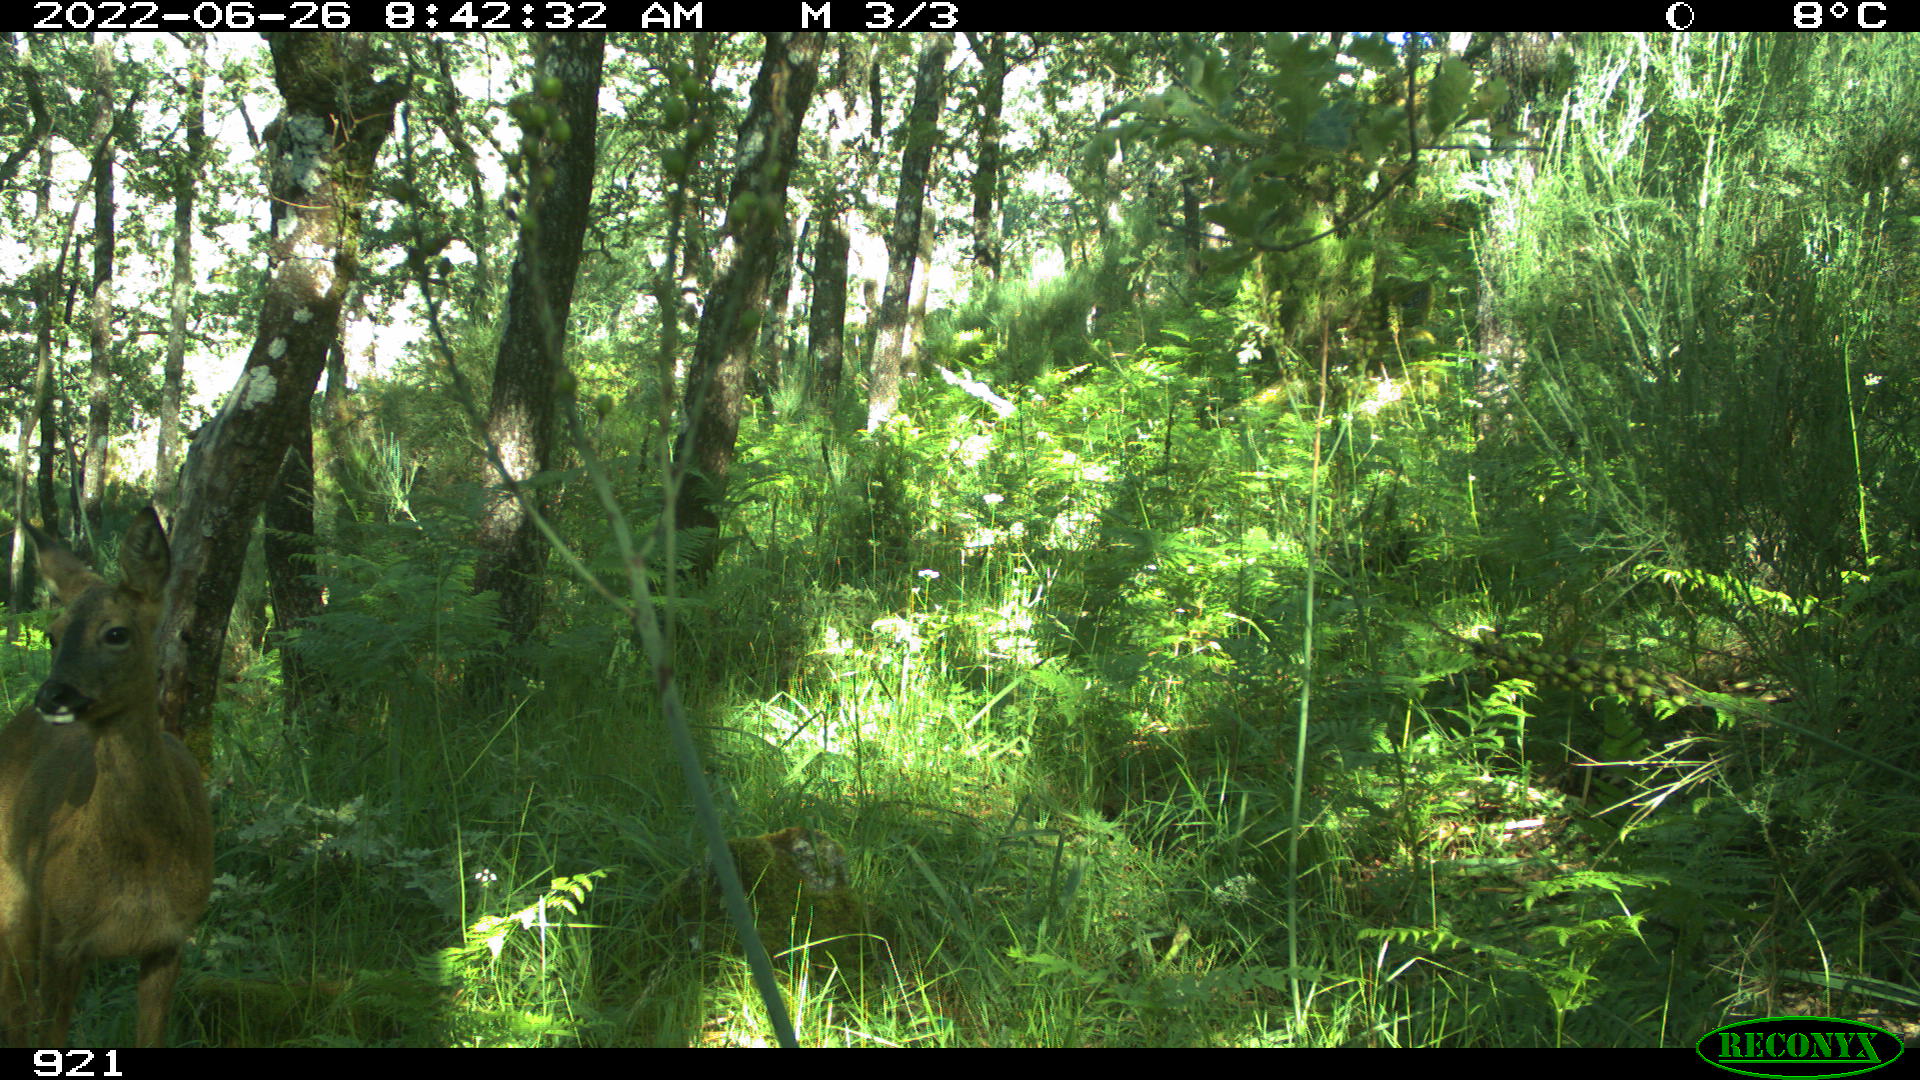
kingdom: Animalia
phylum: Chordata
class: Mammalia
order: Artiodactyla
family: Cervidae
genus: Capreolus
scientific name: Capreolus capreolus
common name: Western roe deer
